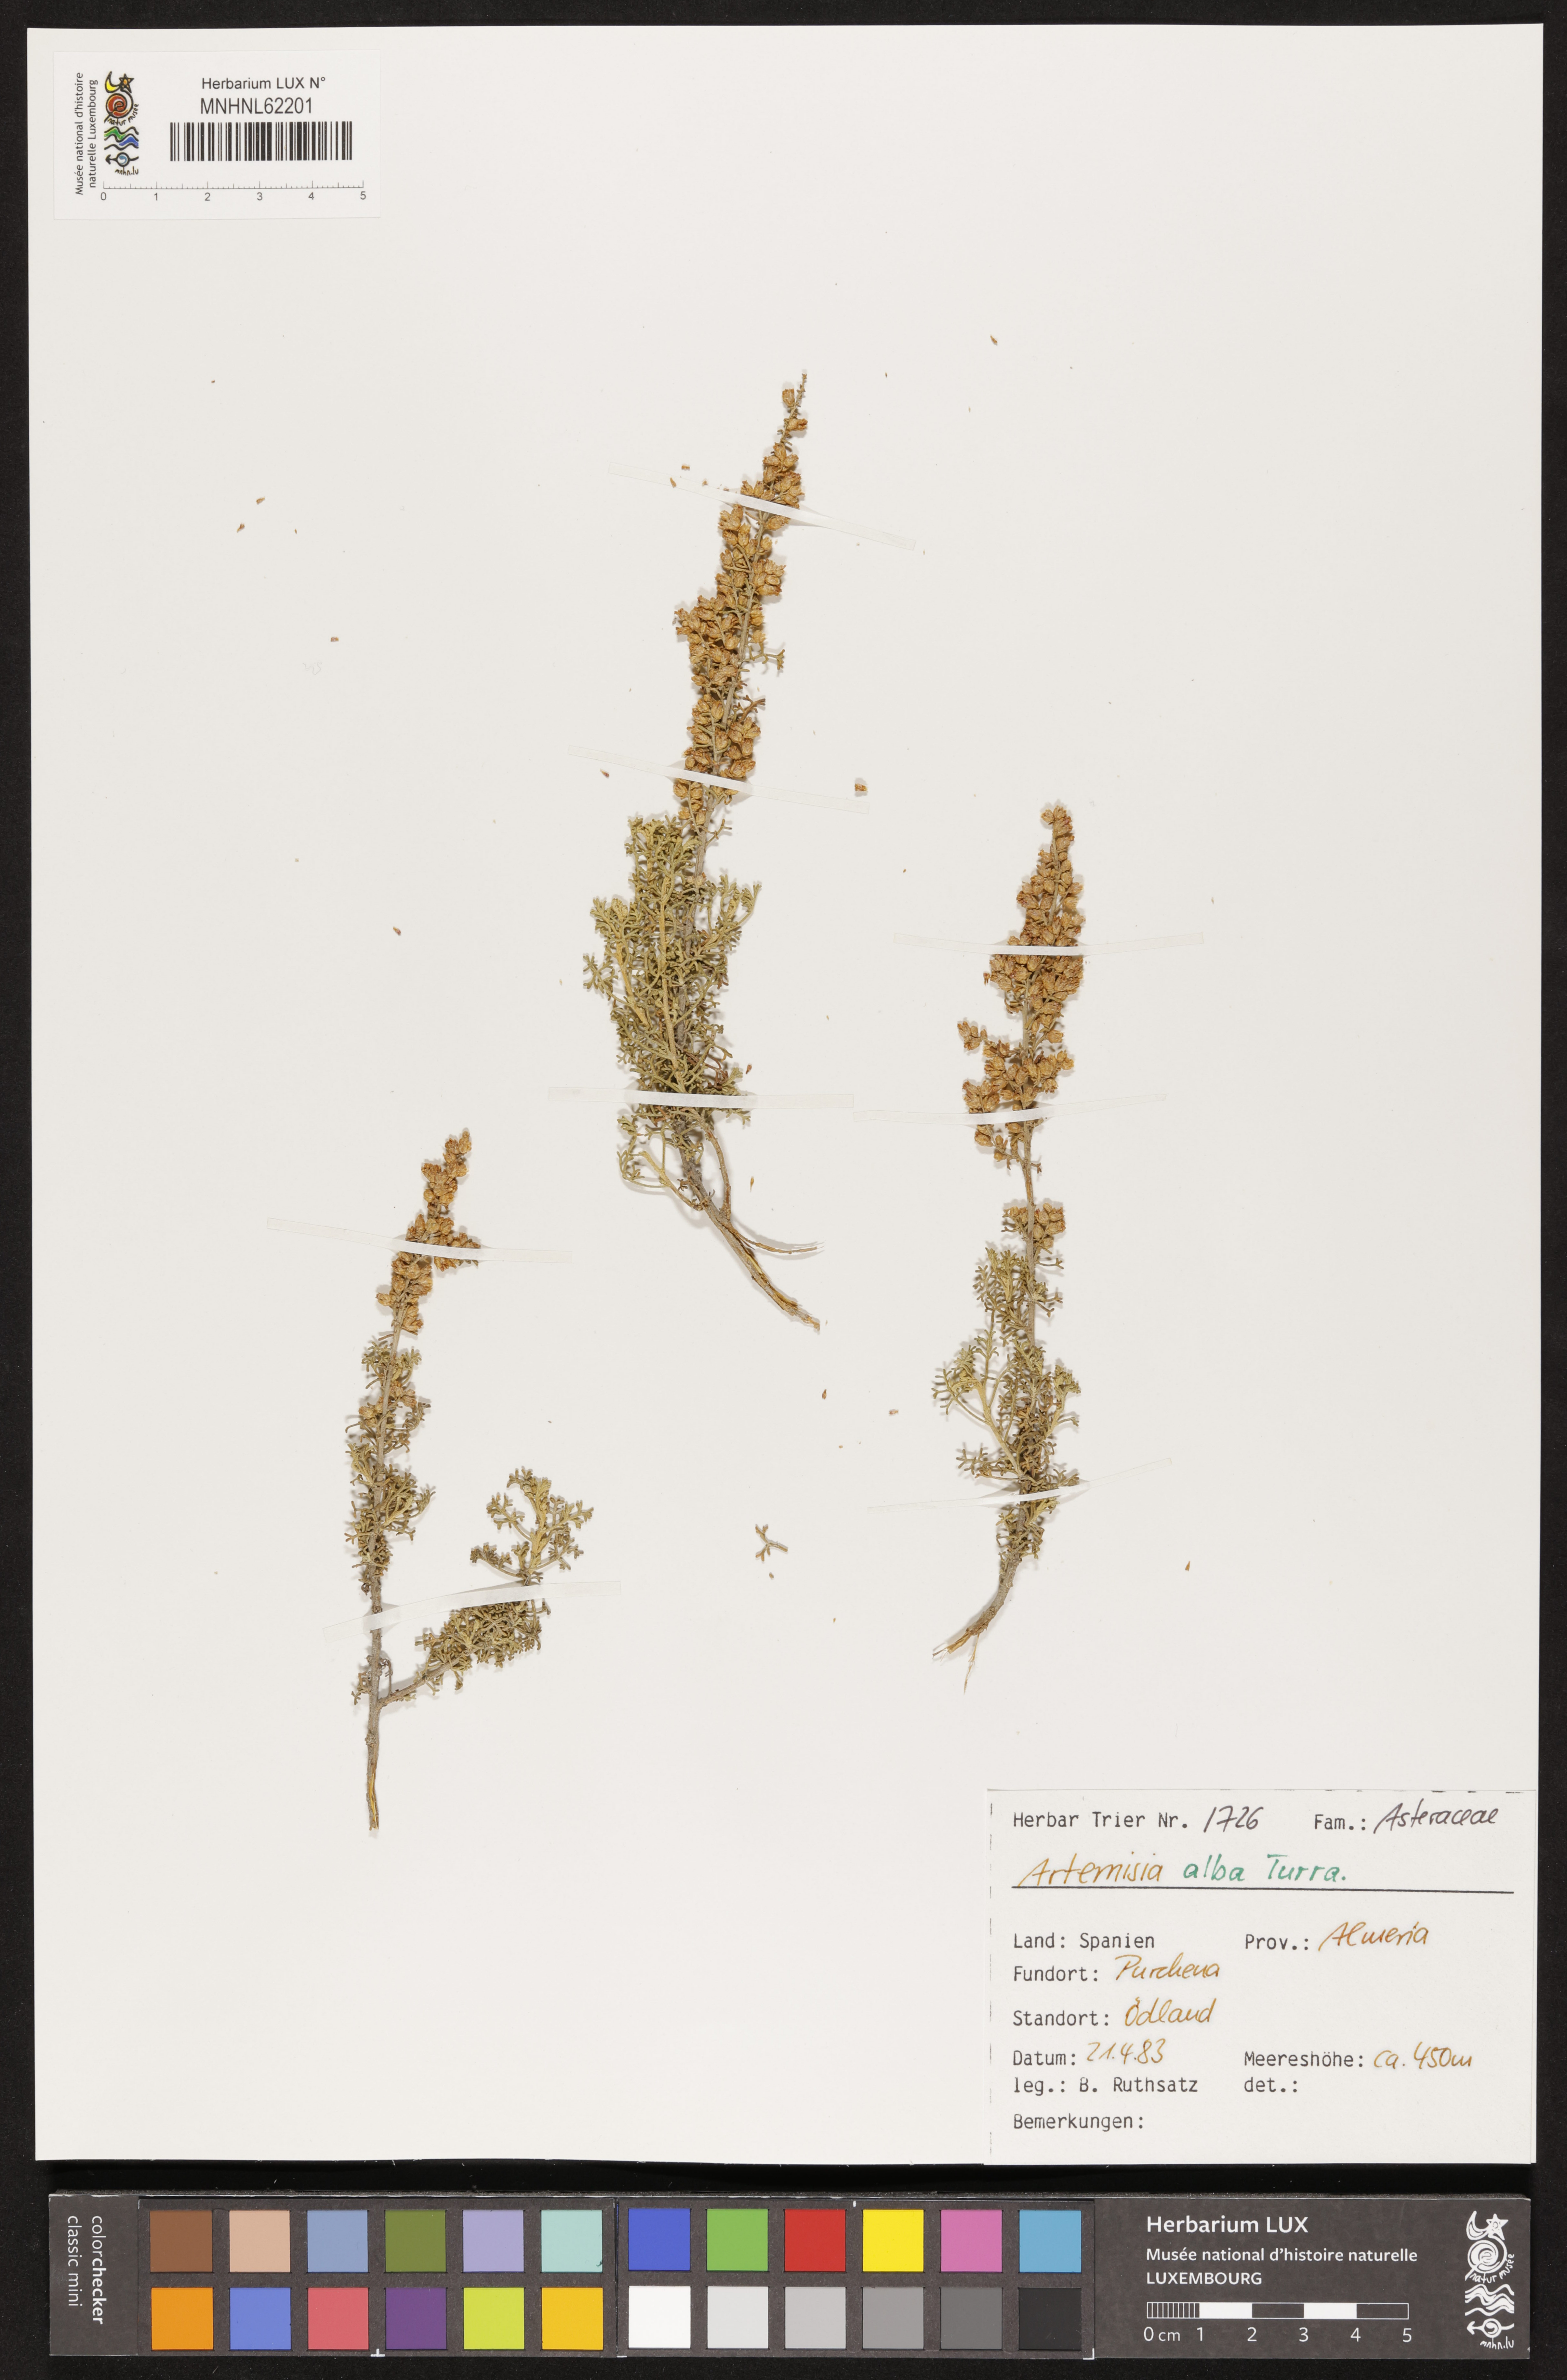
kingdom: Plantae
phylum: Tracheophyta
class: Magnoliopsida
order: Asterales
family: Asteraceae
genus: Artemisia
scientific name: Artemisia alba
